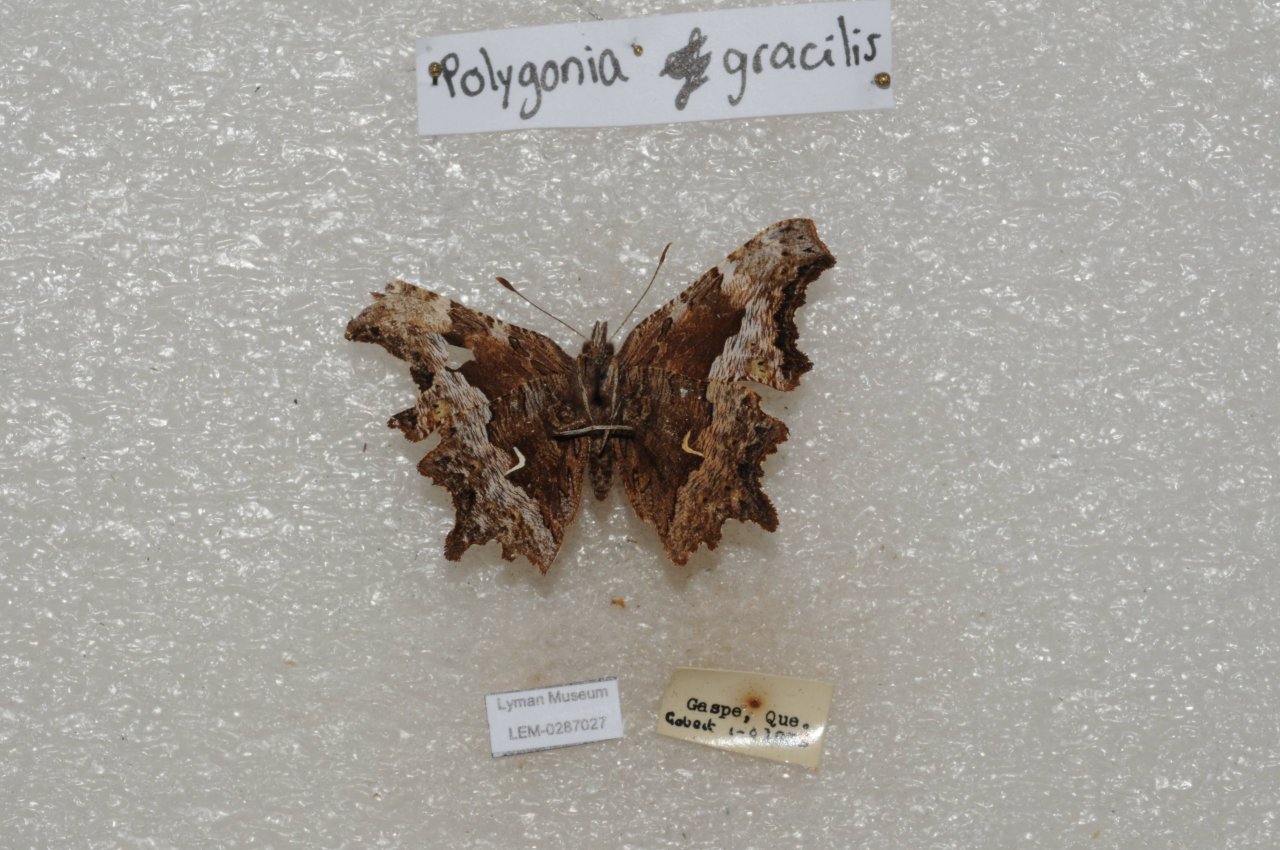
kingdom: Animalia
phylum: Arthropoda
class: Insecta
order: Lepidoptera
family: Nymphalidae
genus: Polygonia
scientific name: Polygonia gracilis
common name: Hoary Comma
